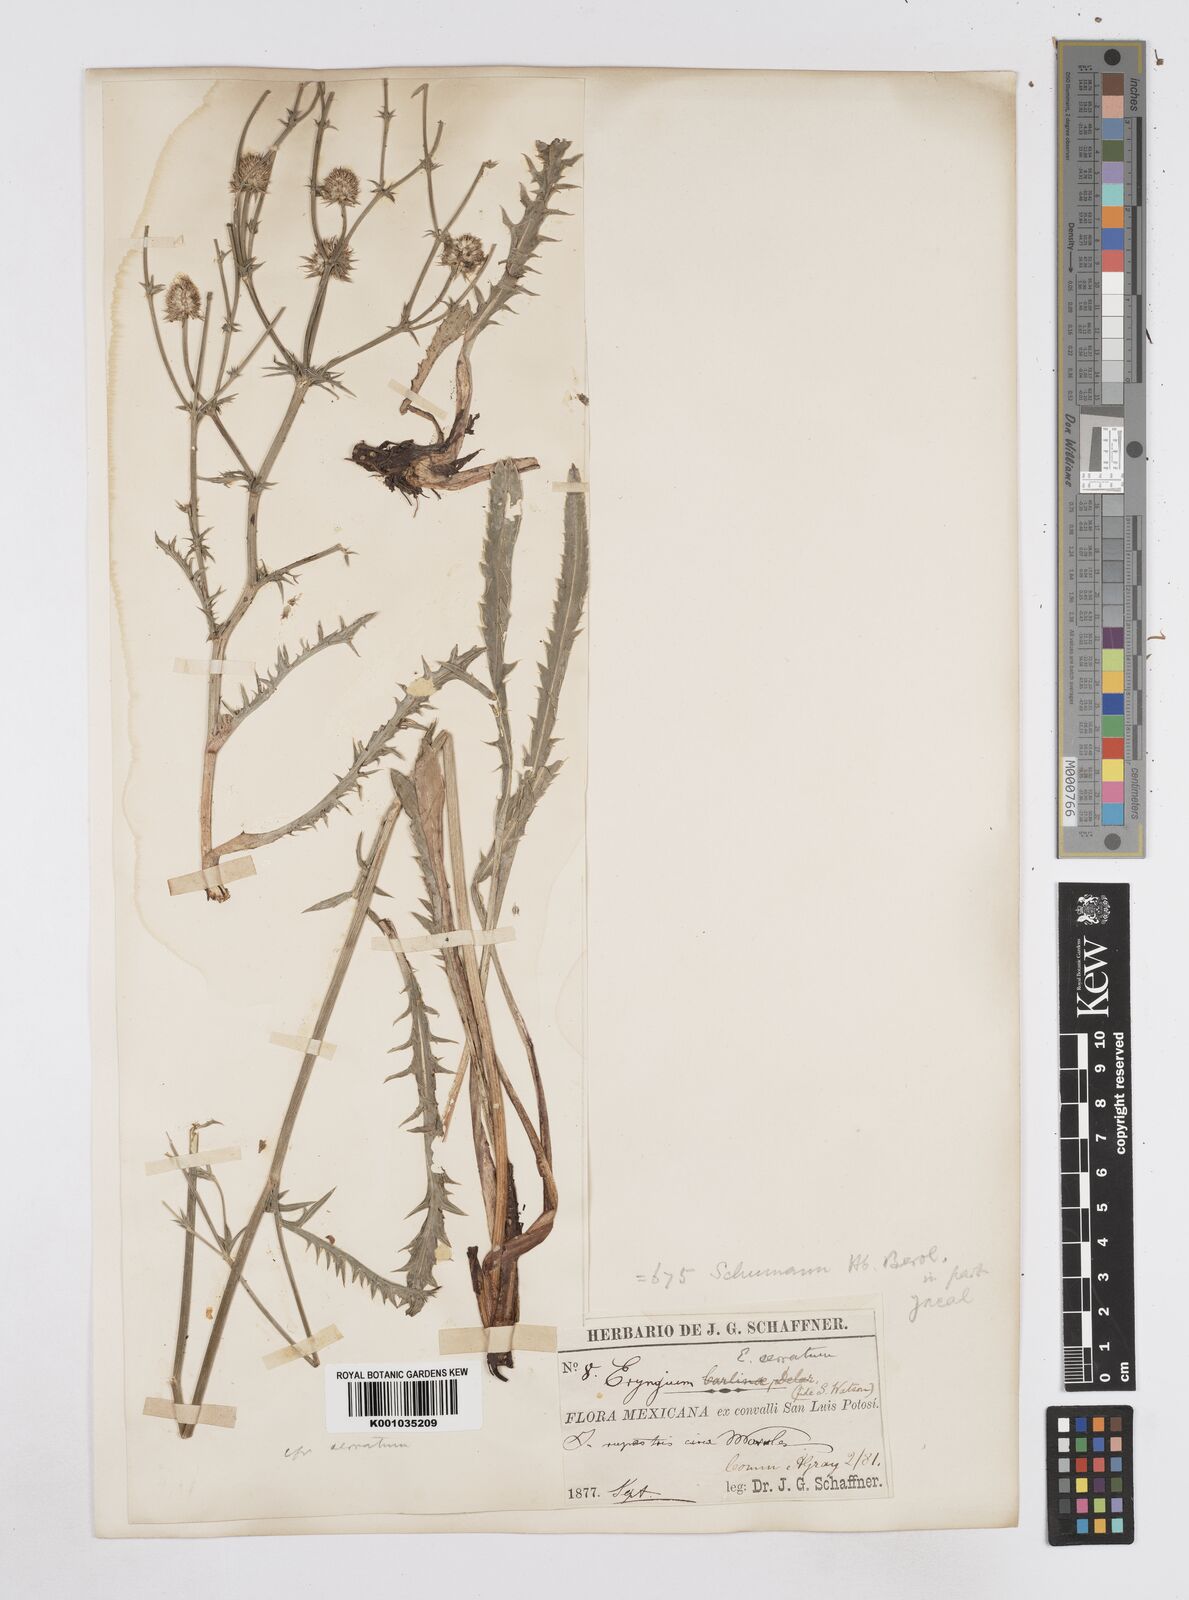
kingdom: Plantae
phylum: Tracheophyta
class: Magnoliopsida
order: Apiales
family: Apiaceae
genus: Eryngium
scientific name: Eryngium serratum
